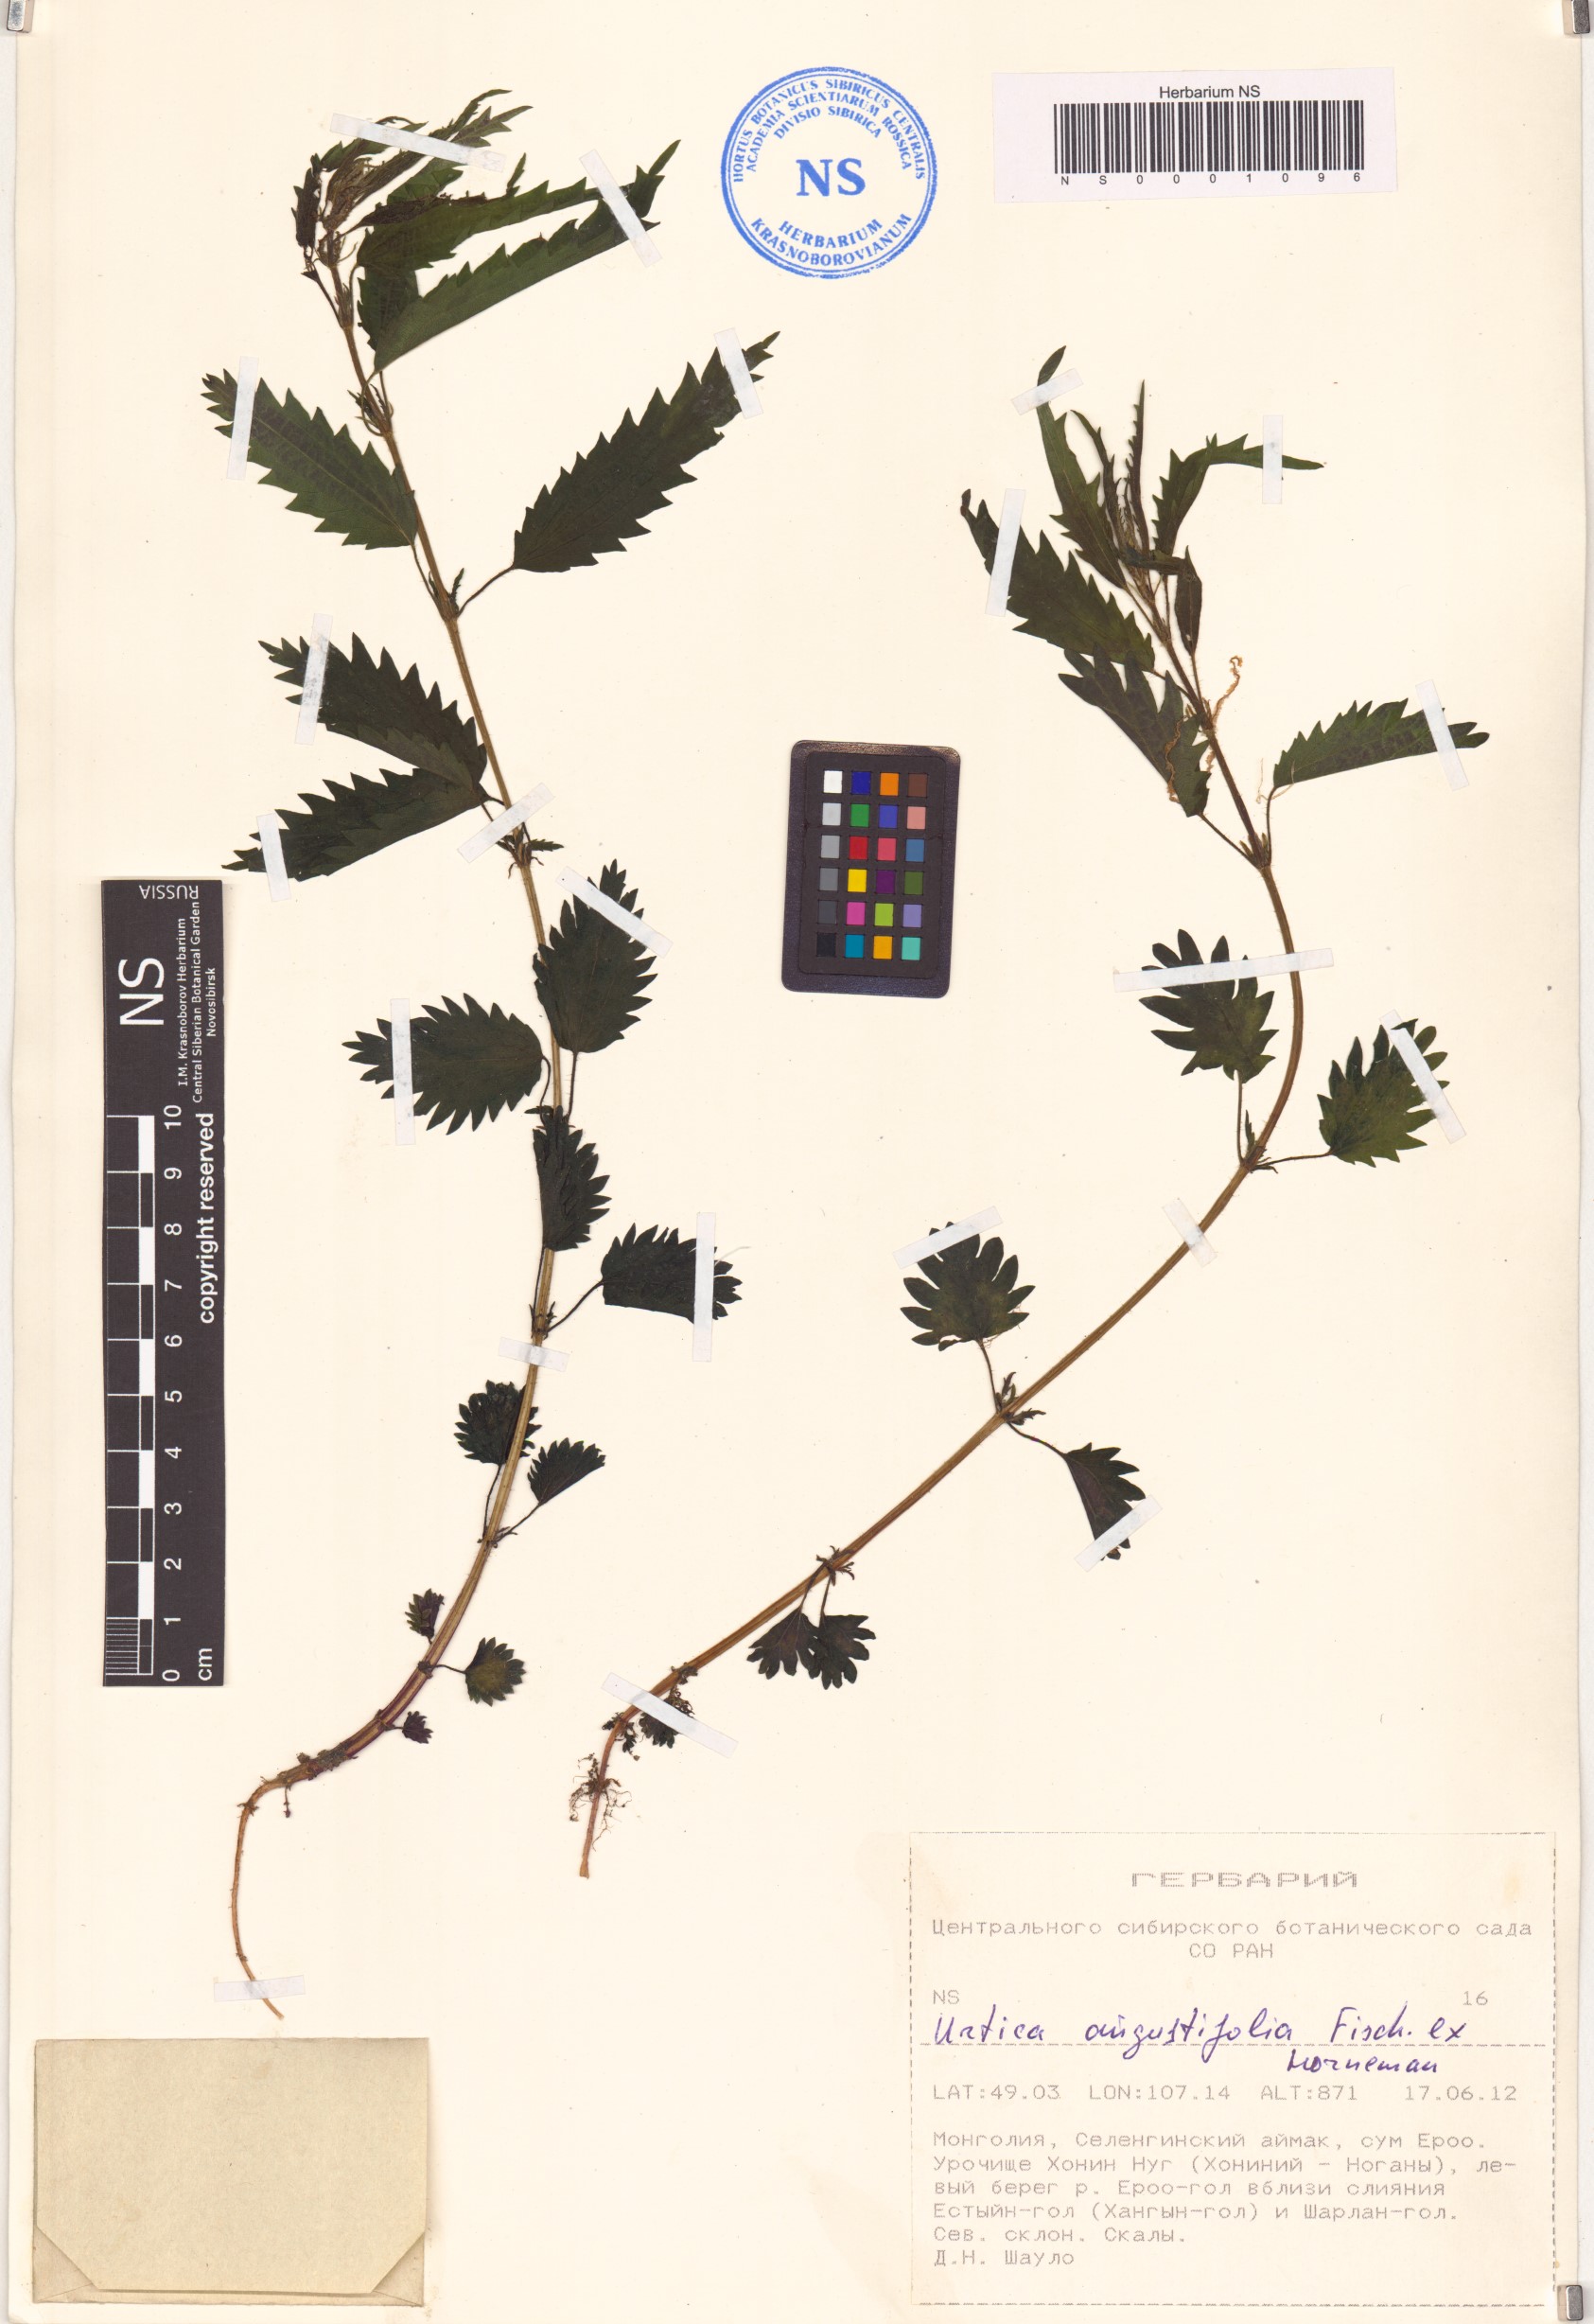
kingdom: Plantae
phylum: Tracheophyta
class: Magnoliopsida
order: Rosales
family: Urticaceae
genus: Urtica
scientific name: Urtica dioica
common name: Common nettle
